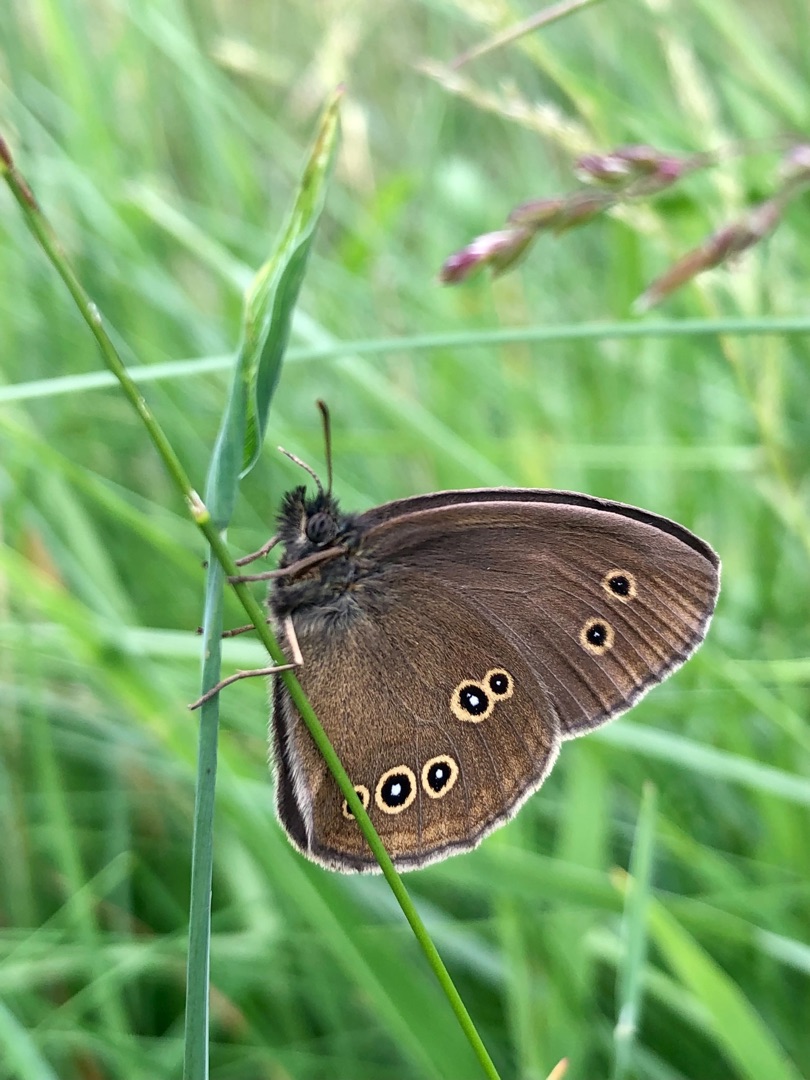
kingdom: Animalia
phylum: Arthropoda
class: Insecta
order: Lepidoptera
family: Nymphalidae
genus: Aphantopus
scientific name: Aphantopus hyperantus
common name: Engrandøje
